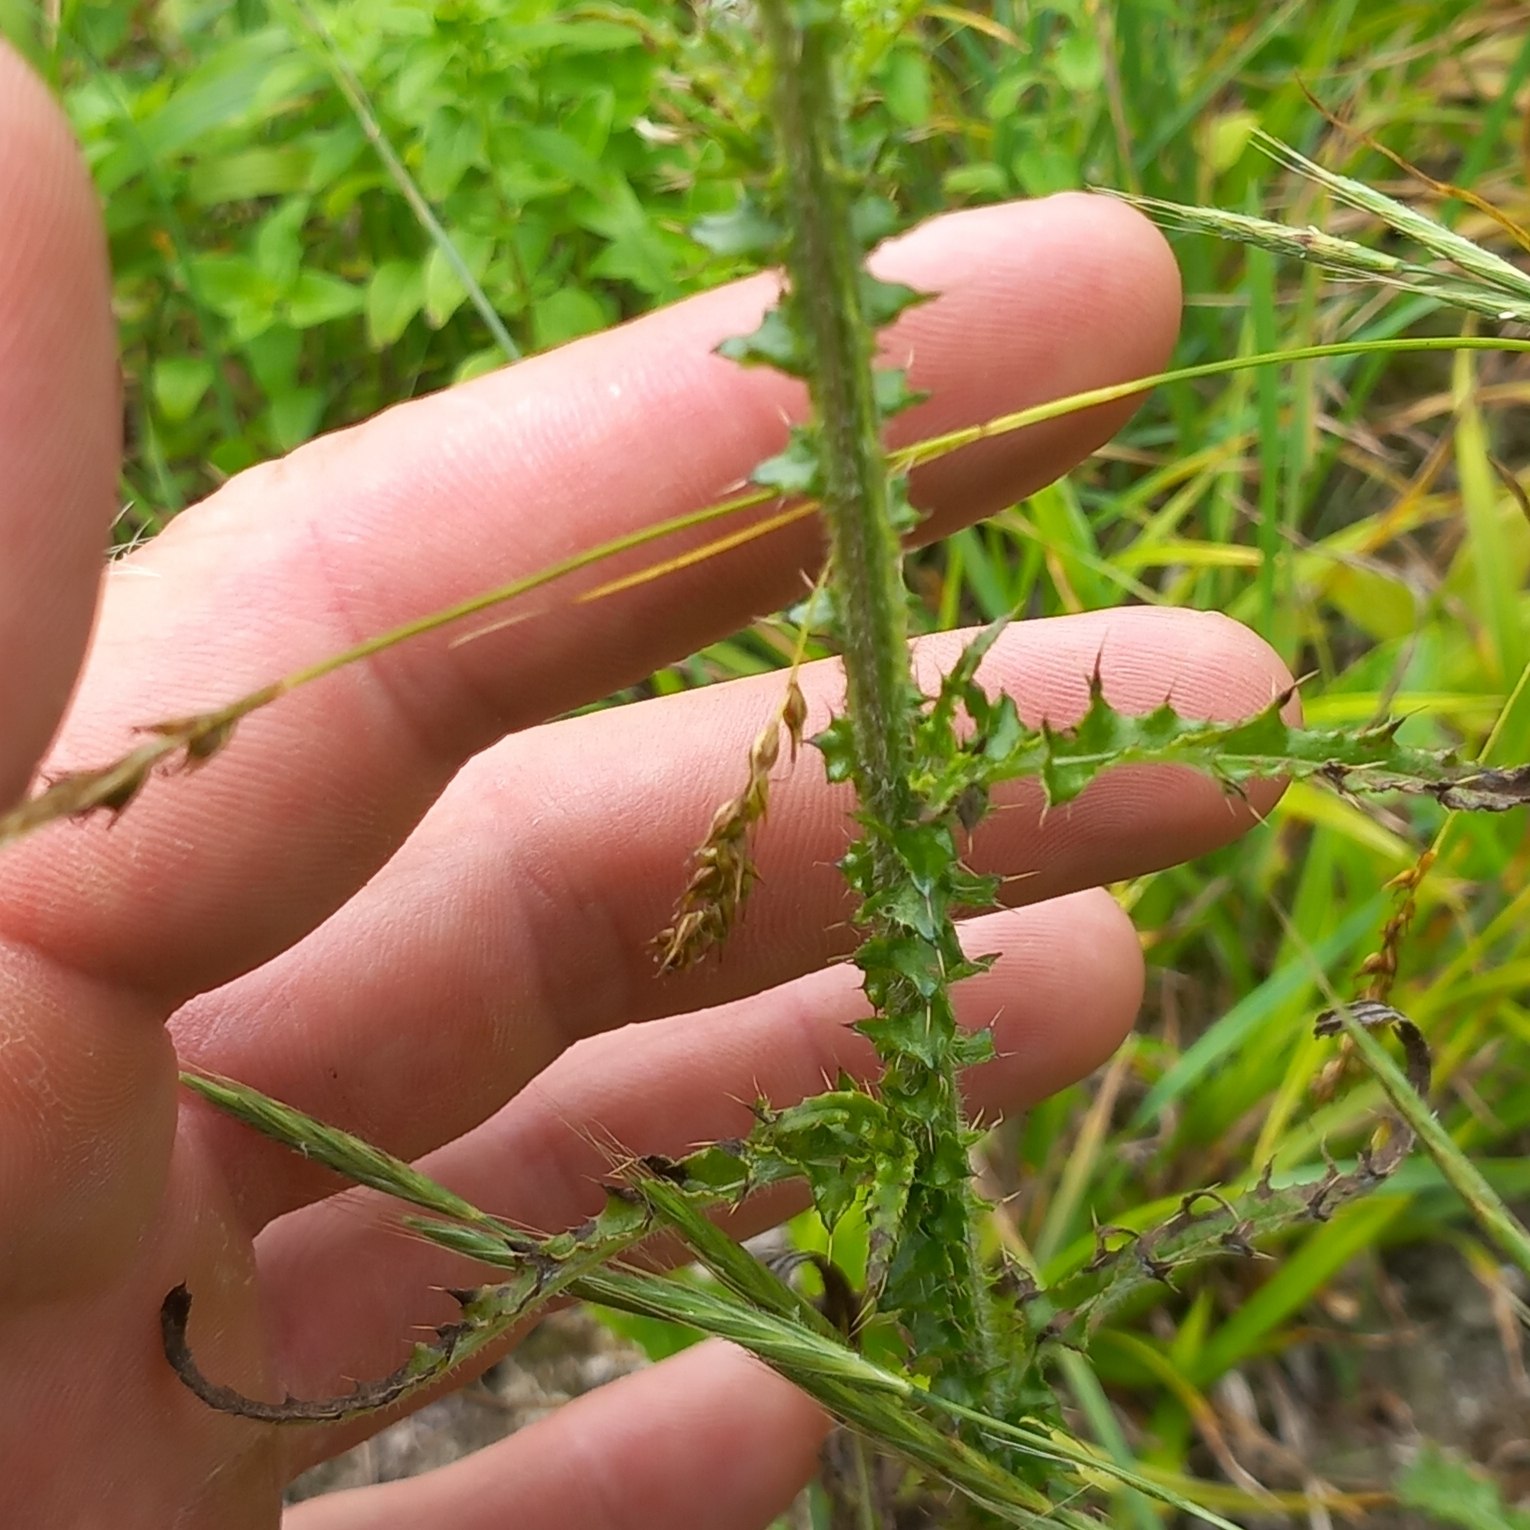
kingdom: Plantae
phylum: Tracheophyta
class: Magnoliopsida
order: Asterales
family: Asteraceae
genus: Carduus
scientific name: Carduus crispus
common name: Kruset tidsel
